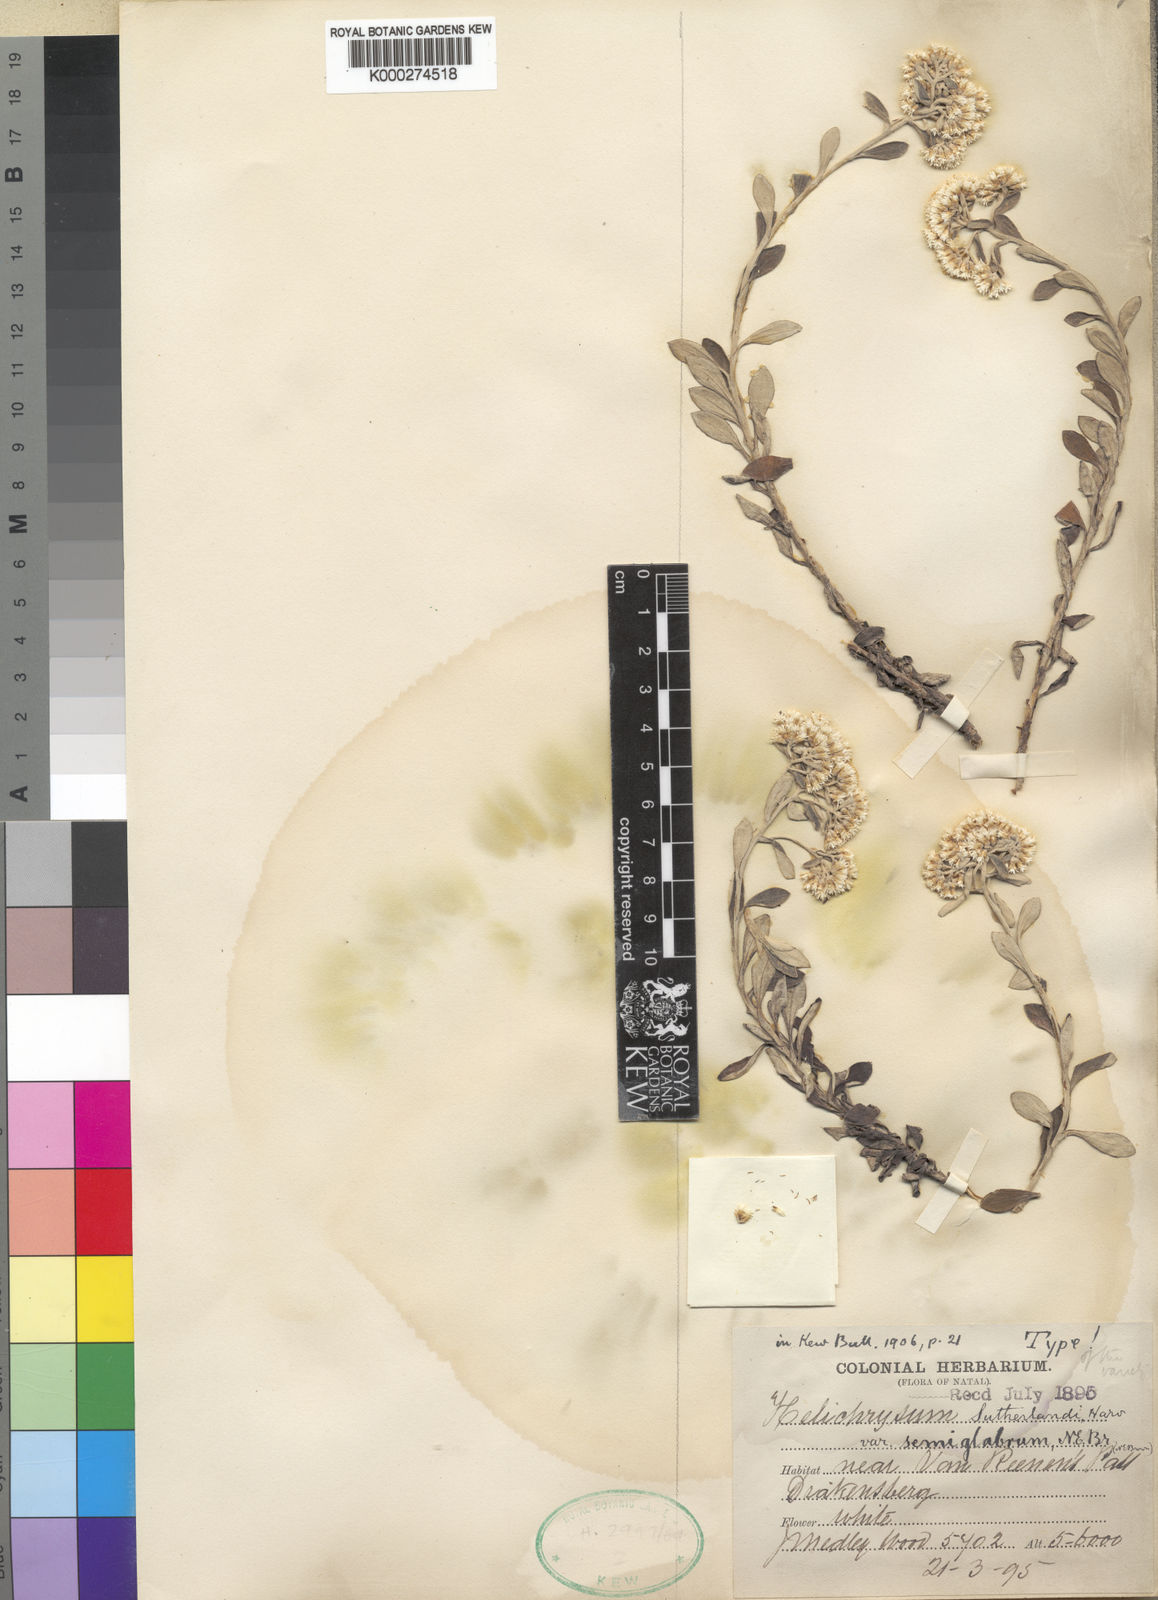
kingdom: Plantae
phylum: Tracheophyta
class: Magnoliopsida
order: Asterales
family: Asteraceae
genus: Helichrysum
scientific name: Helichrysum sutherlandii
